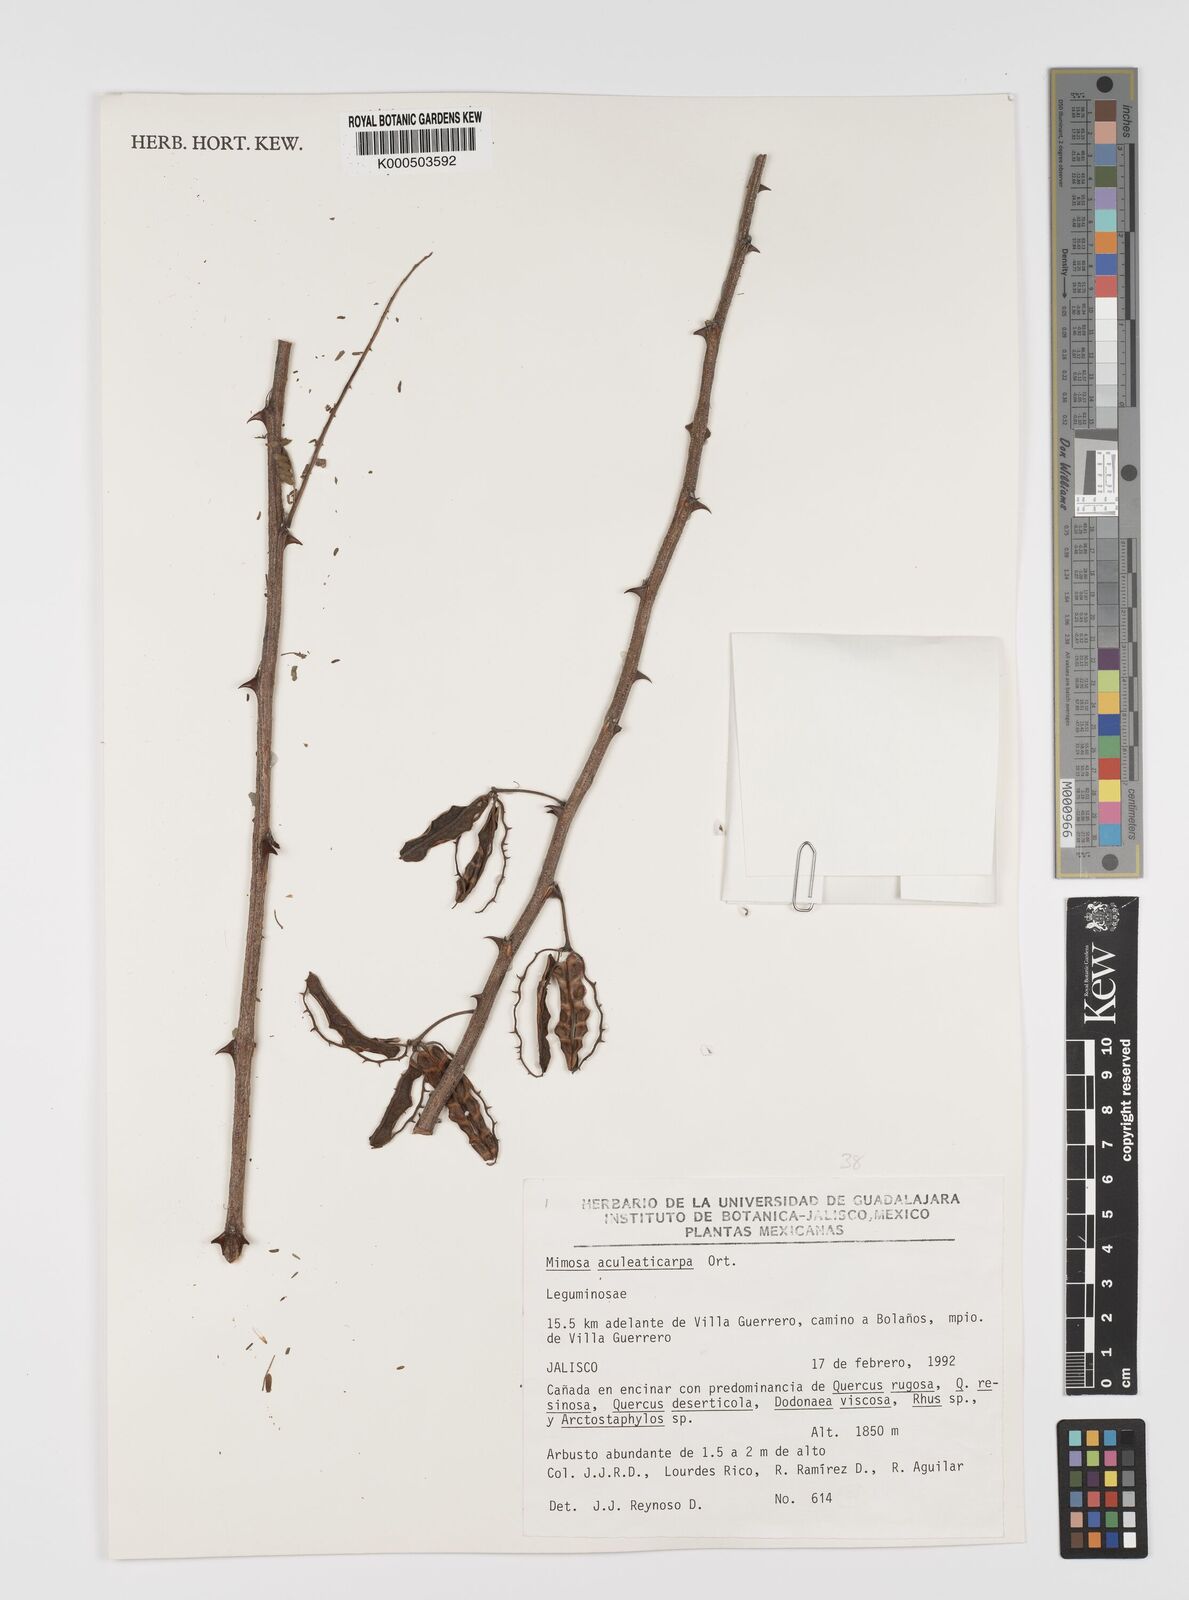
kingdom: Plantae
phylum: Tracheophyta
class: Magnoliopsida
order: Fabales
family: Fabaceae
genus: Mimosa
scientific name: Mimosa aculeaticarpa
